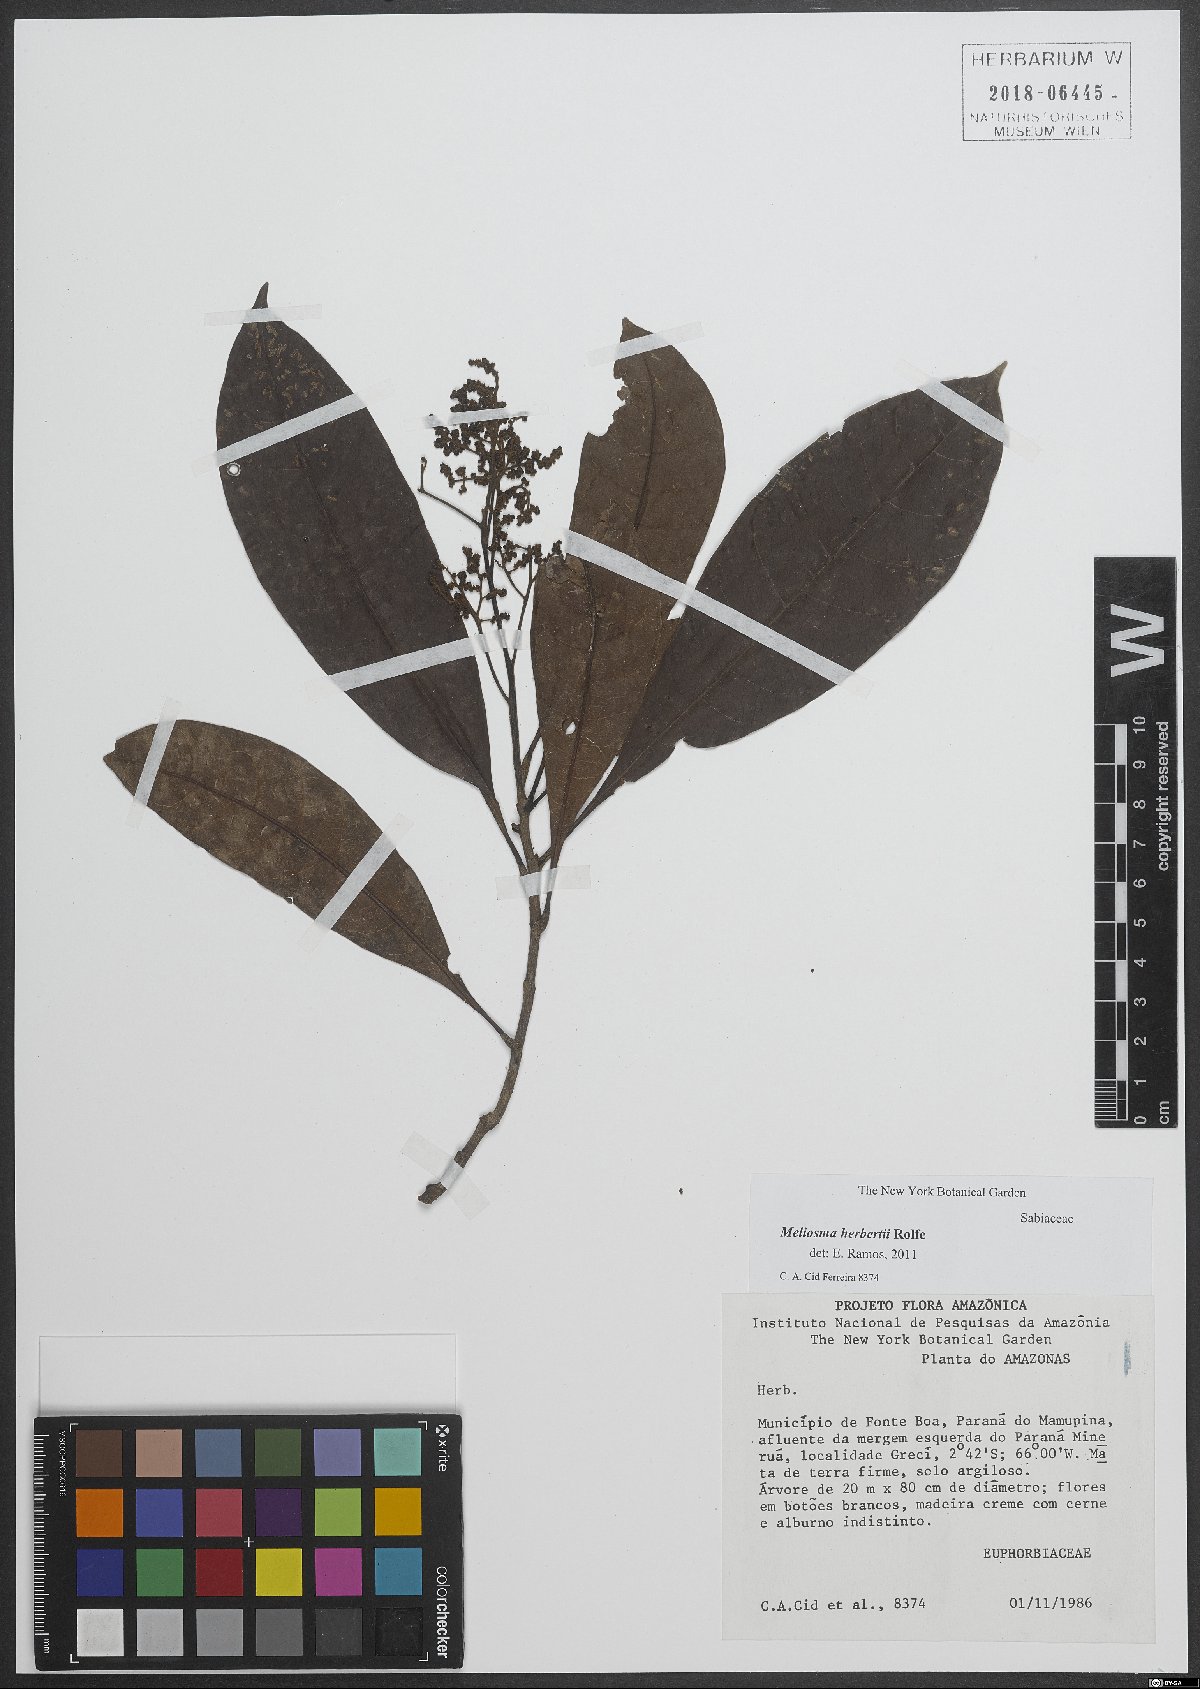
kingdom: Plantae
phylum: Tracheophyta
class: Magnoliopsida
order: Proteales
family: Sabiaceae
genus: Meliosma
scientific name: Meliosma herbertii
